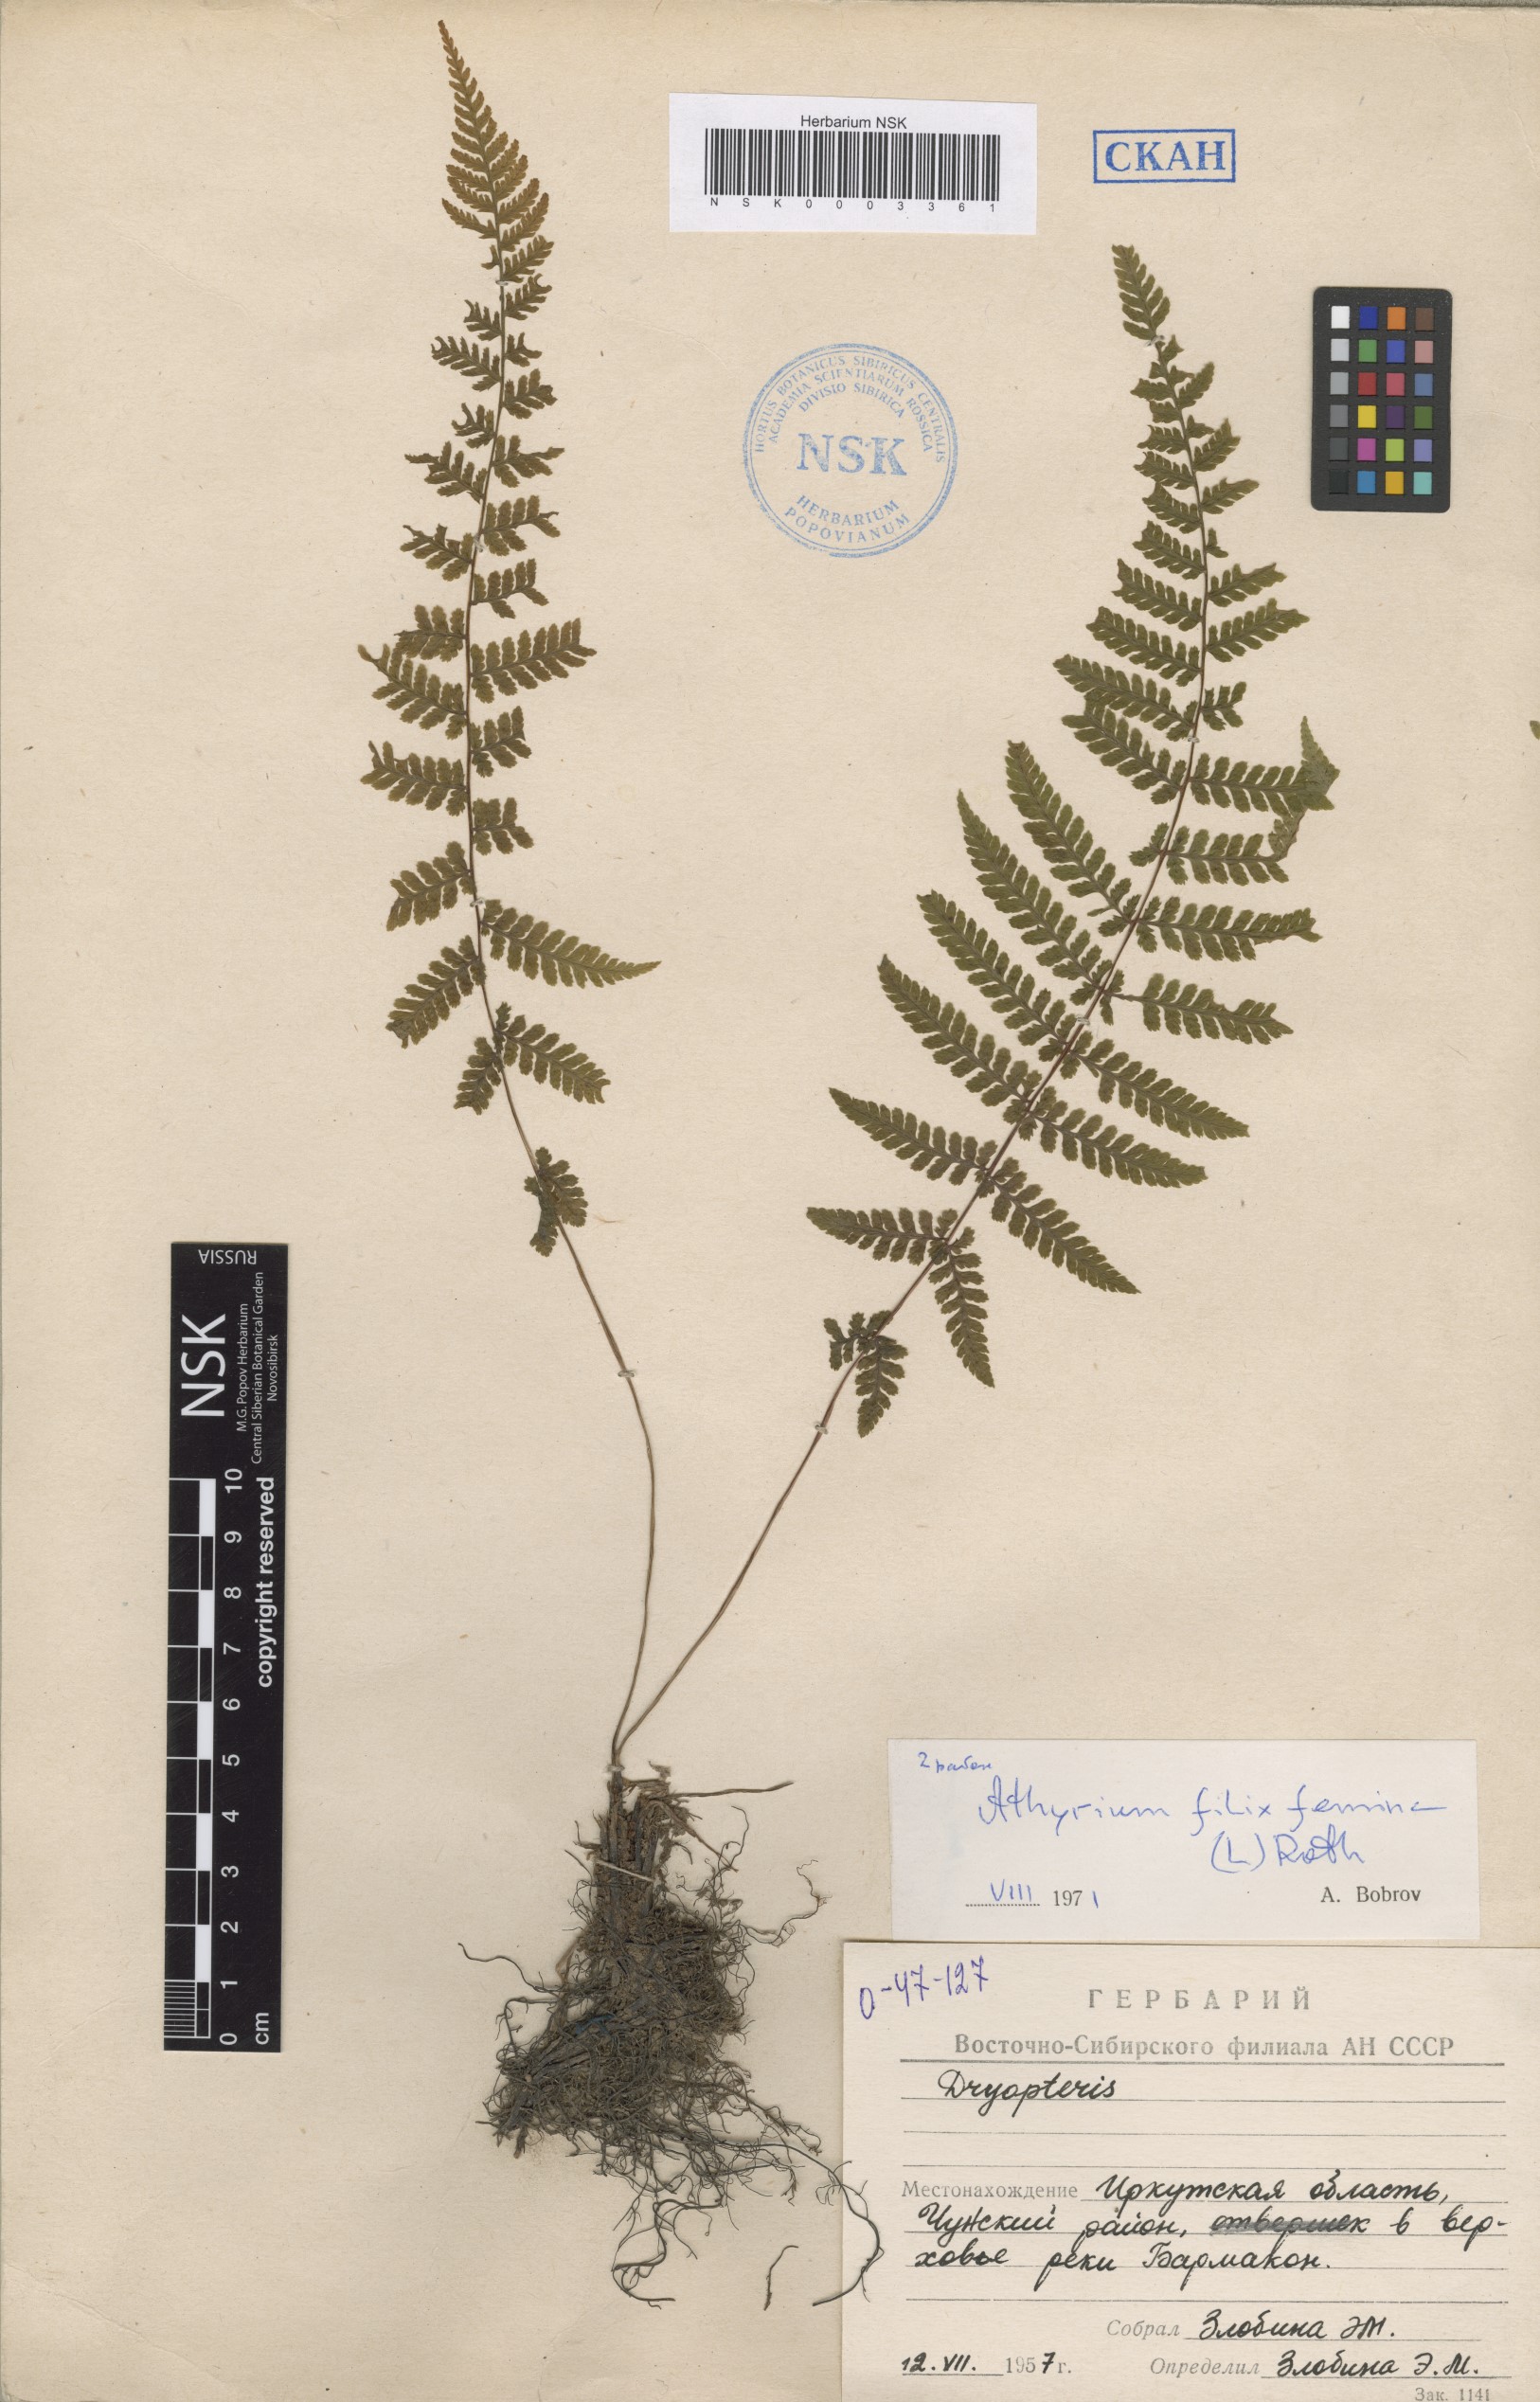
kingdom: Plantae
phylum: Tracheophyta
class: Polypodiopsida
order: Polypodiales
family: Athyriaceae
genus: Athyrium
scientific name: Athyrium filix-femina
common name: Lady fern
